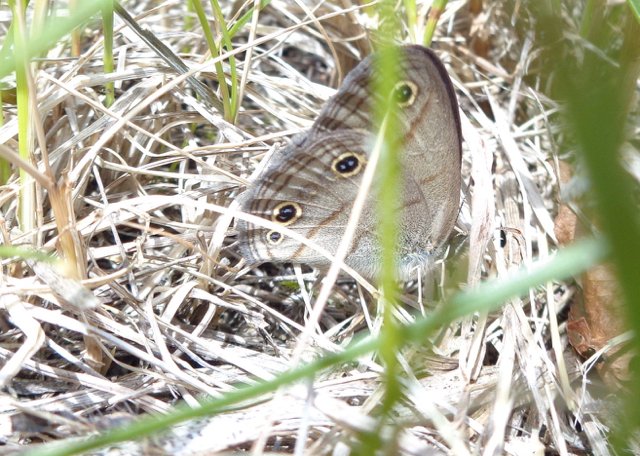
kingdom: Animalia
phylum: Arthropoda
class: Insecta
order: Lepidoptera
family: Nymphalidae
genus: Euptychia
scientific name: Euptychia cymela
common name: Little Wood Satyr
